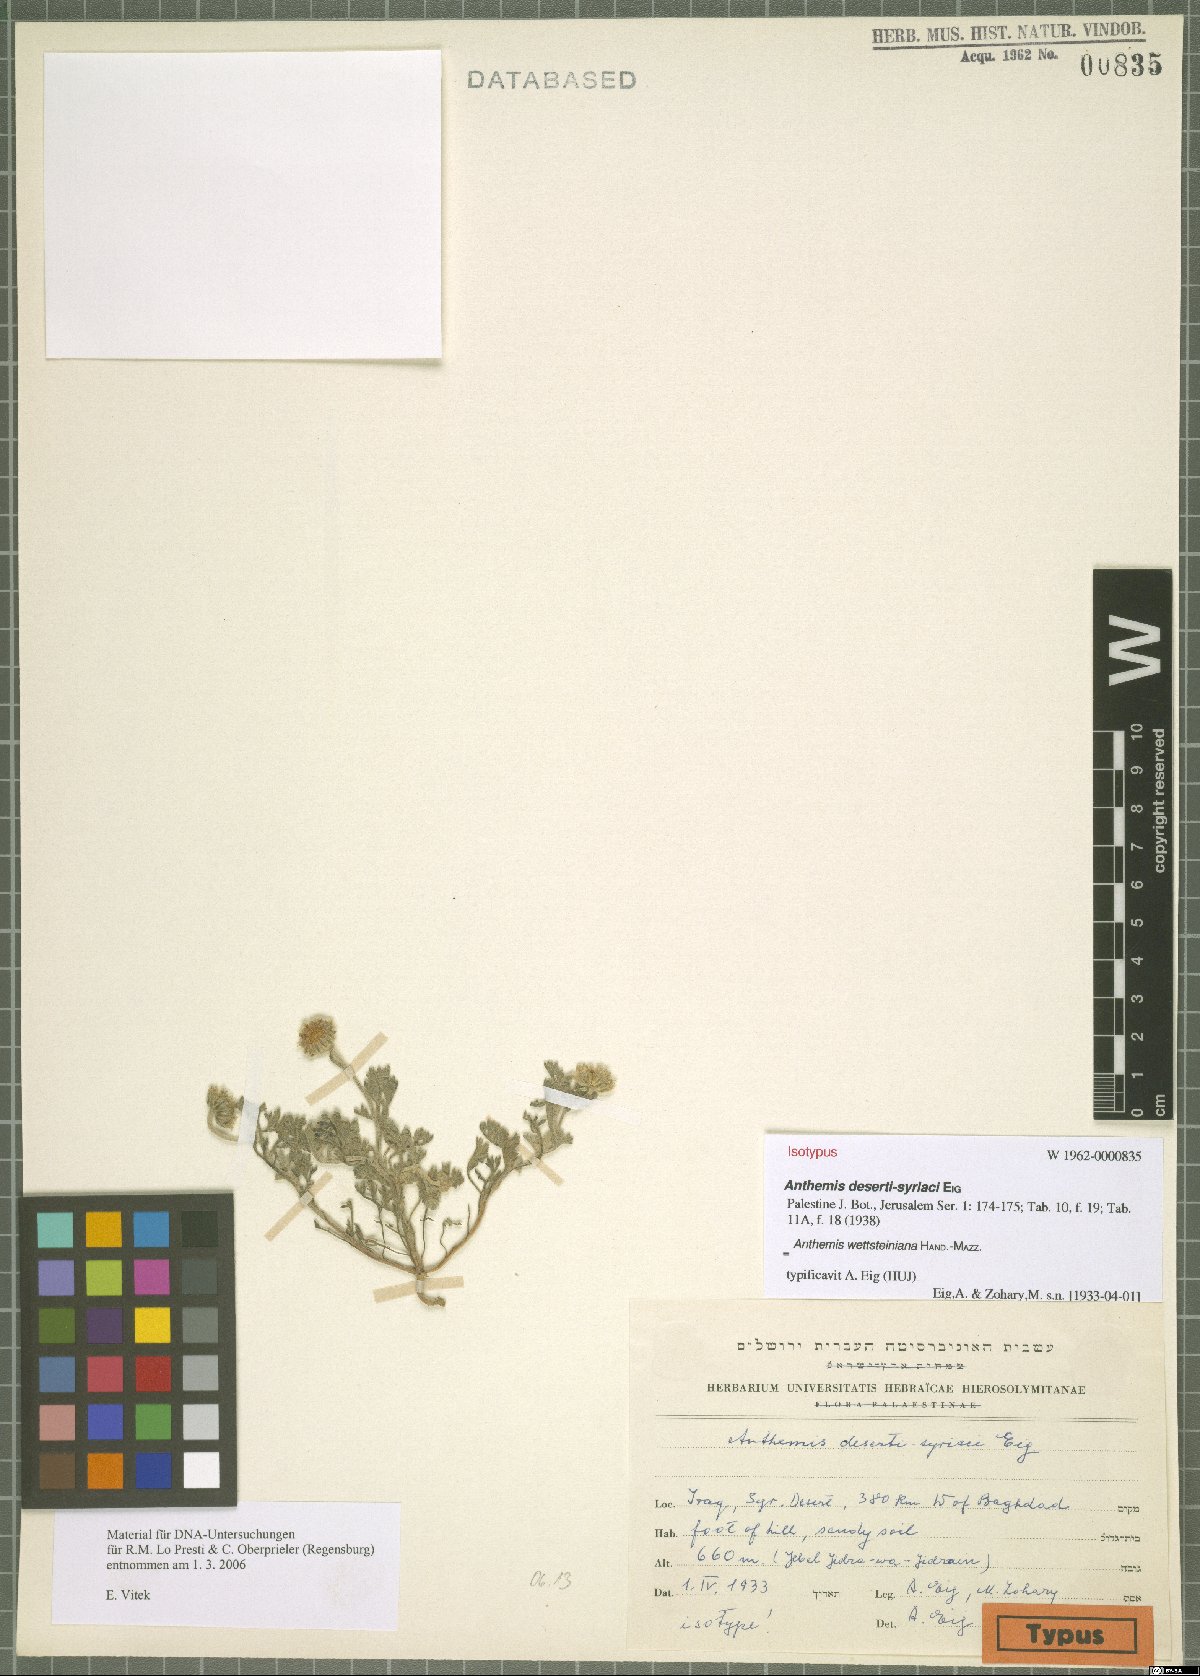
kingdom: Plantae
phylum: Tracheophyta
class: Magnoliopsida
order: Asterales
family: Asteraceae
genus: Anthemis
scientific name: Anthemis wettsteiniana
